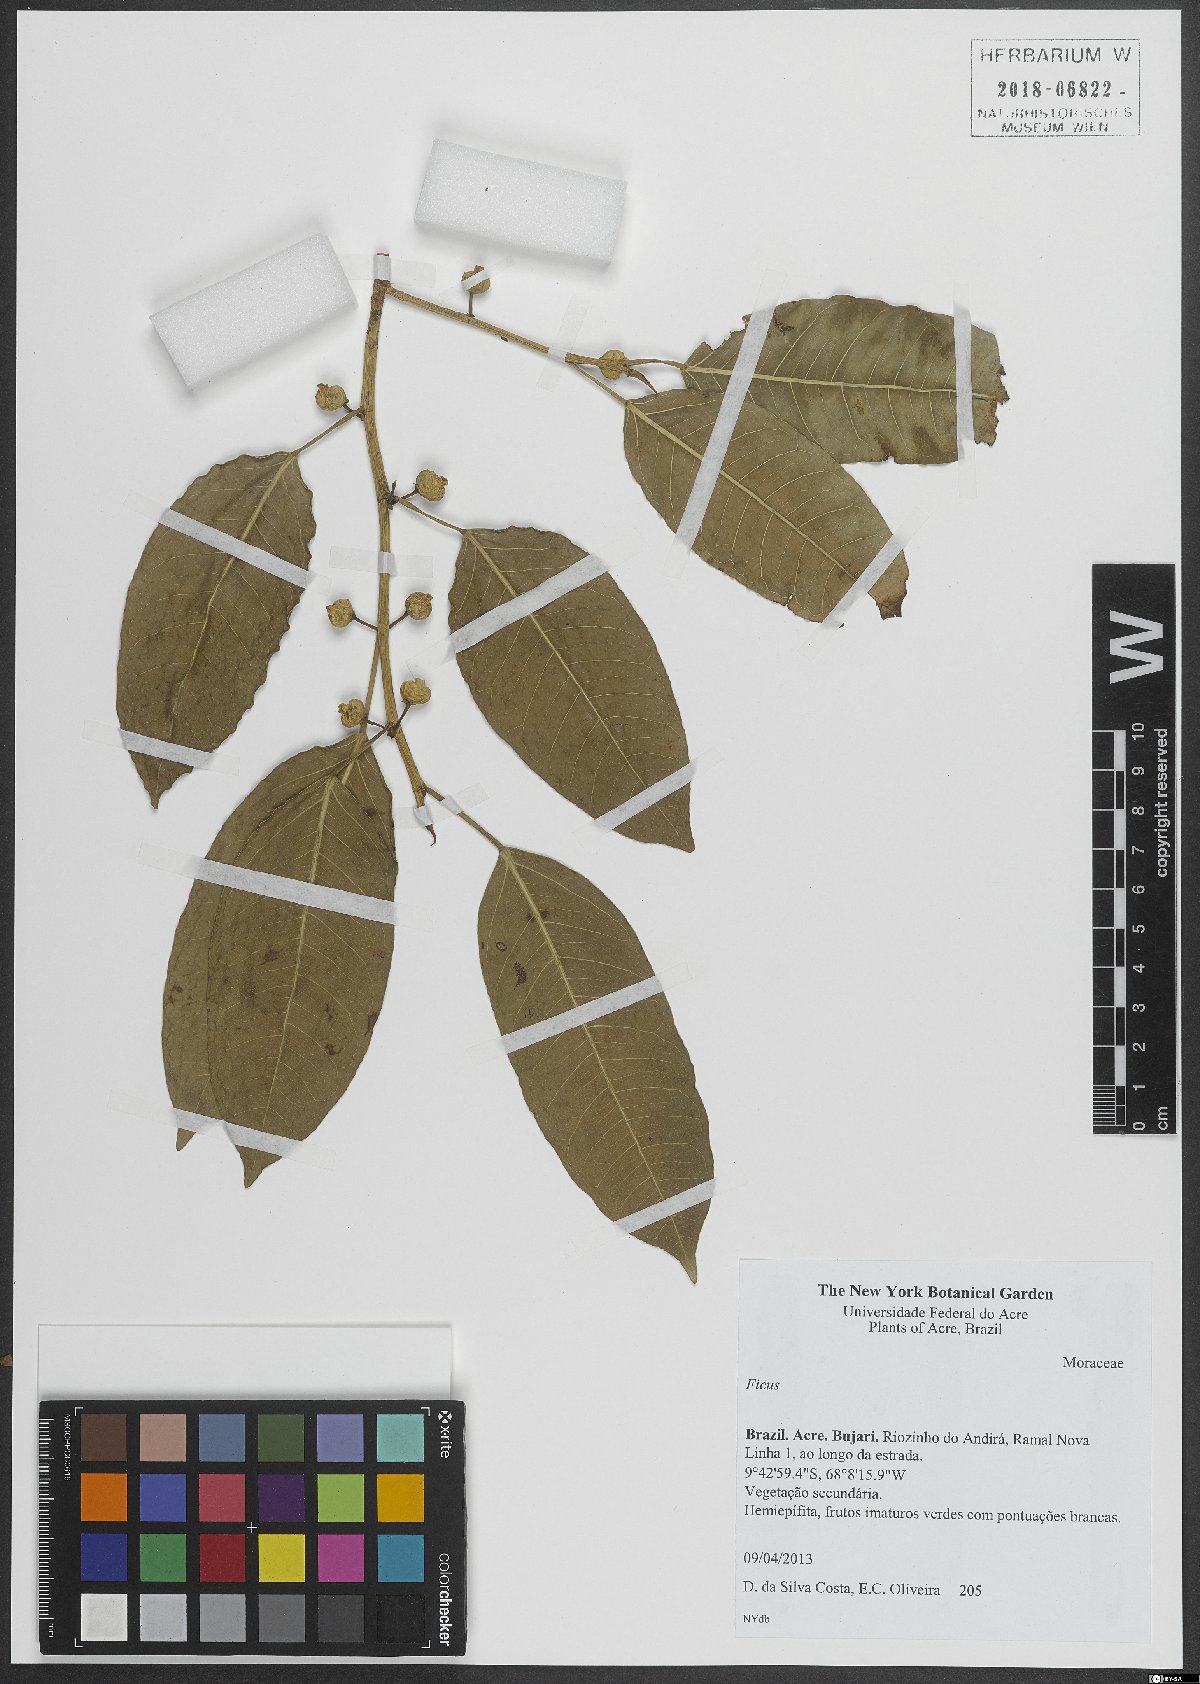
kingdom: Plantae
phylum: Tracheophyta
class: Magnoliopsida
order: Rosales
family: Moraceae
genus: Ficus
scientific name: Ficus
